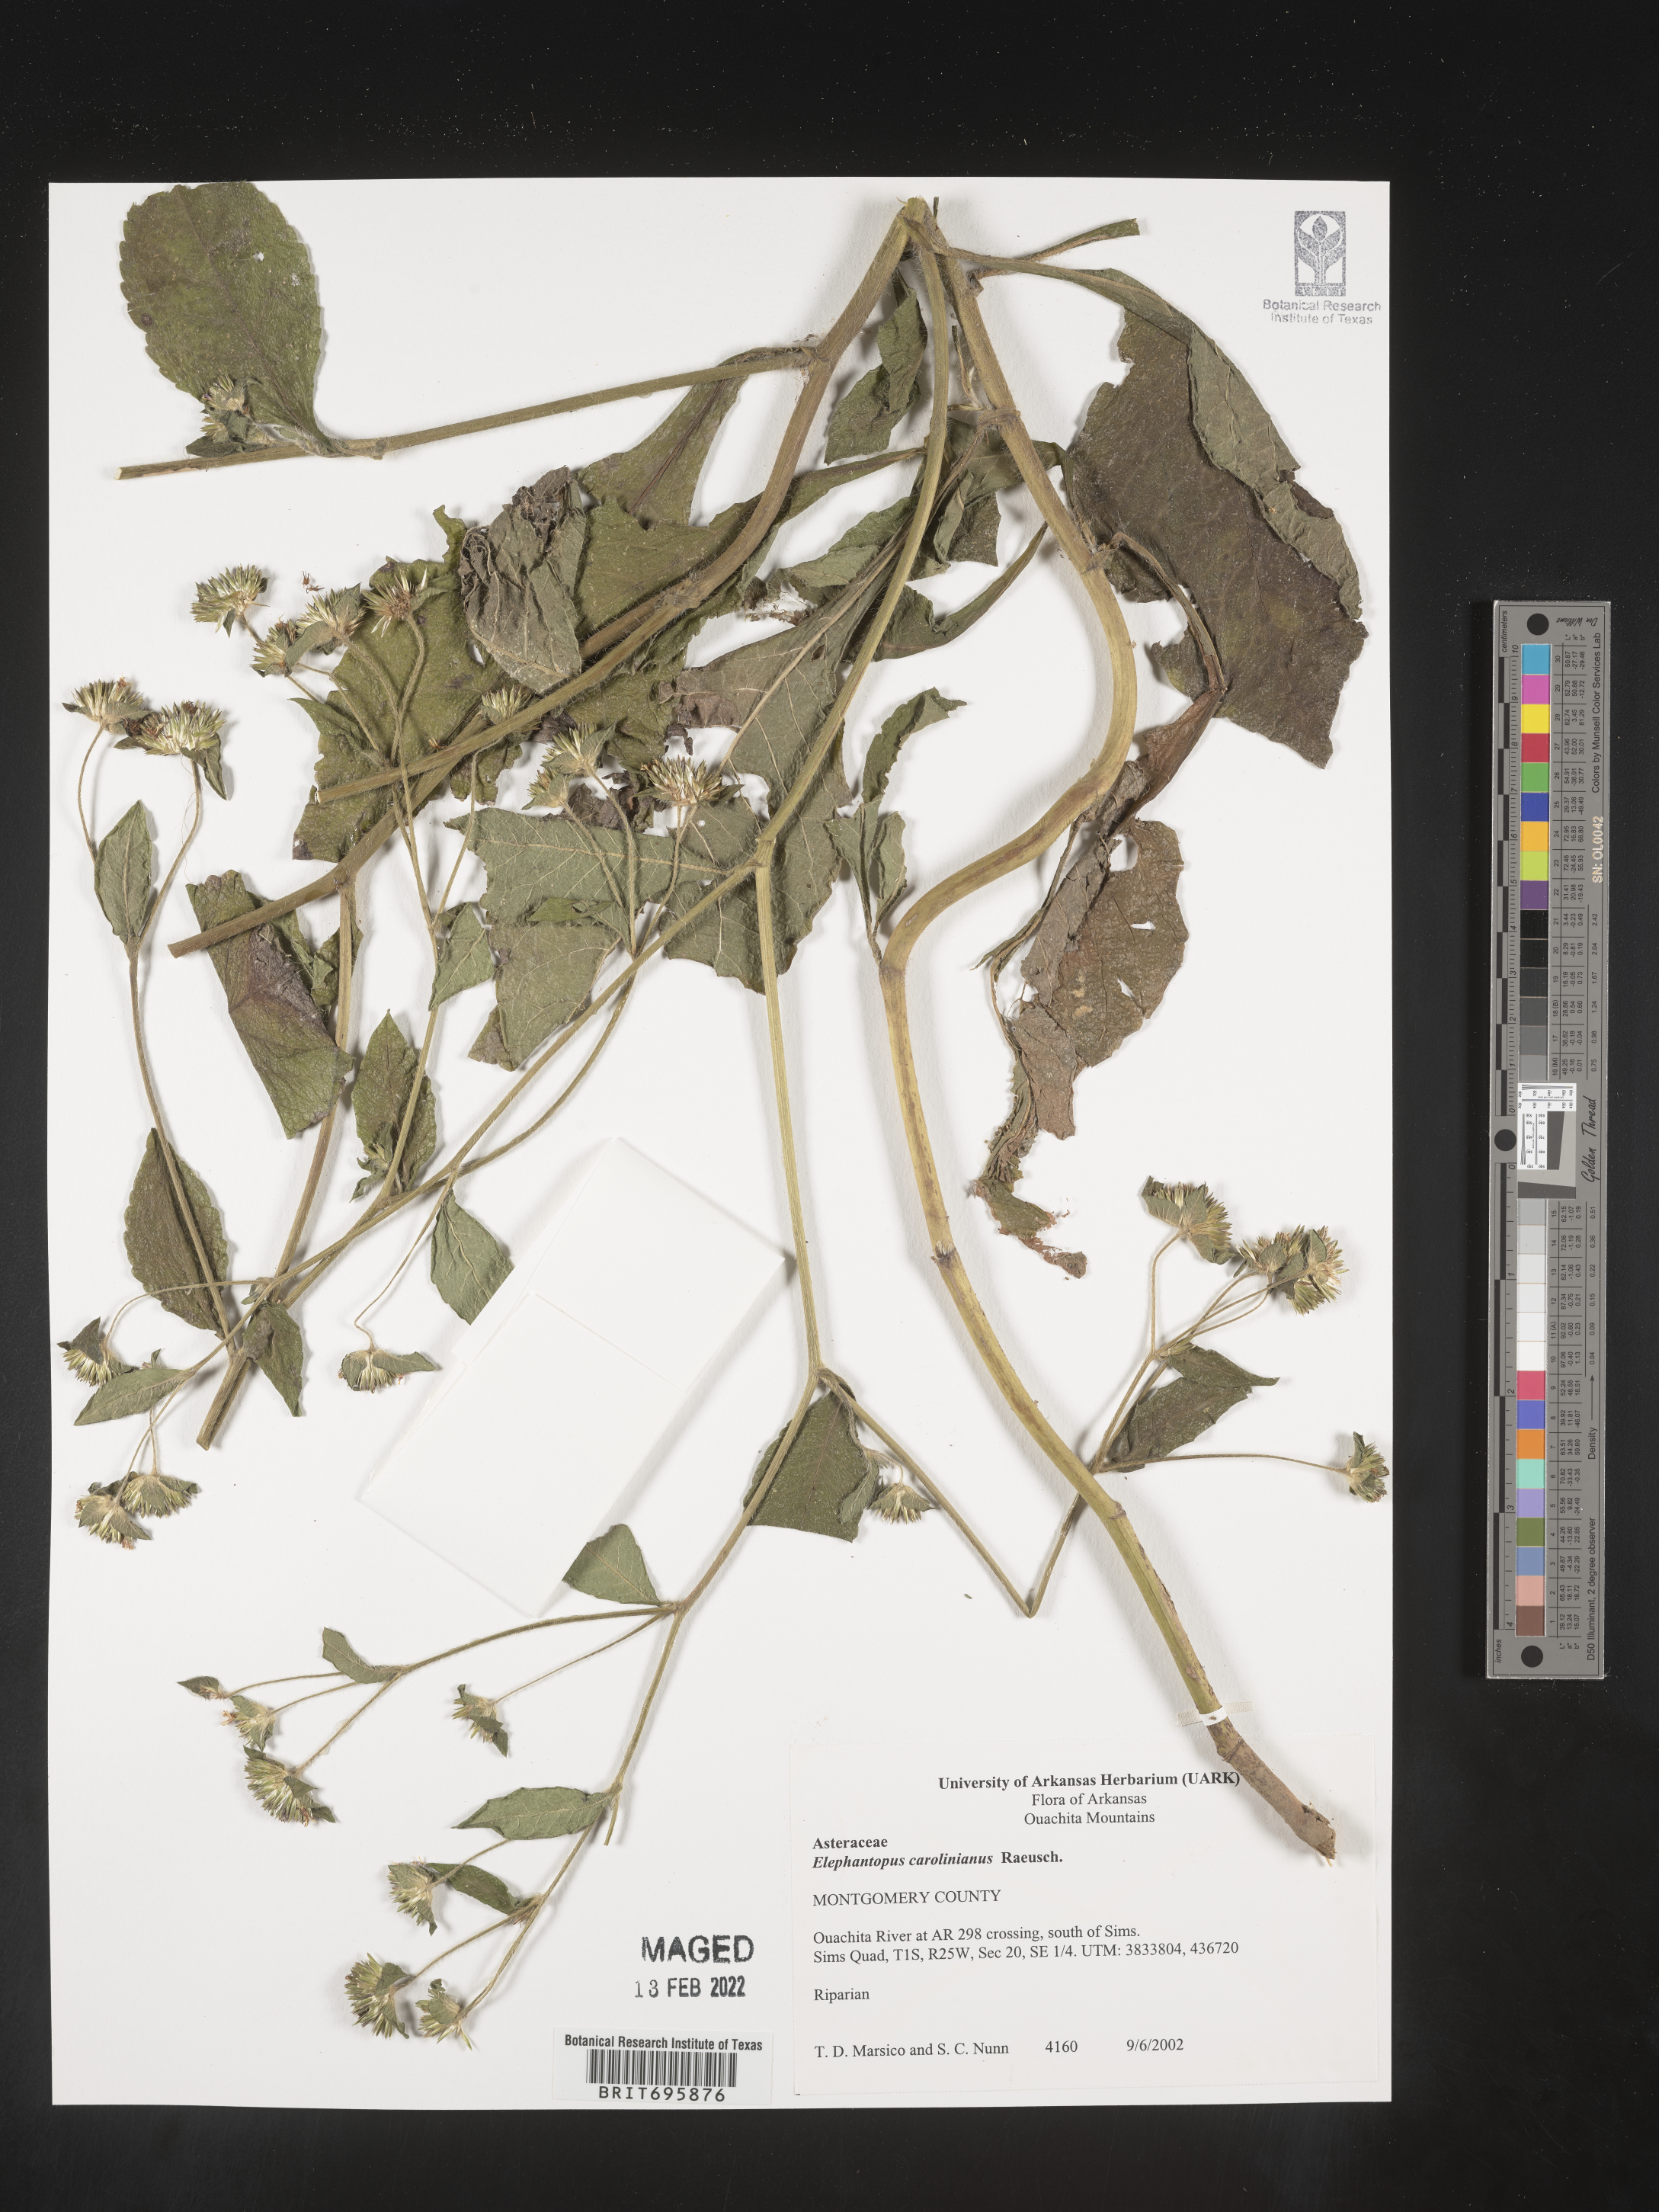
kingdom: Plantae
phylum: Tracheophyta
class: Magnoliopsida
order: Asterales
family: Asteraceae
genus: Elephantopus
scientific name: Elephantopus carolinianus
